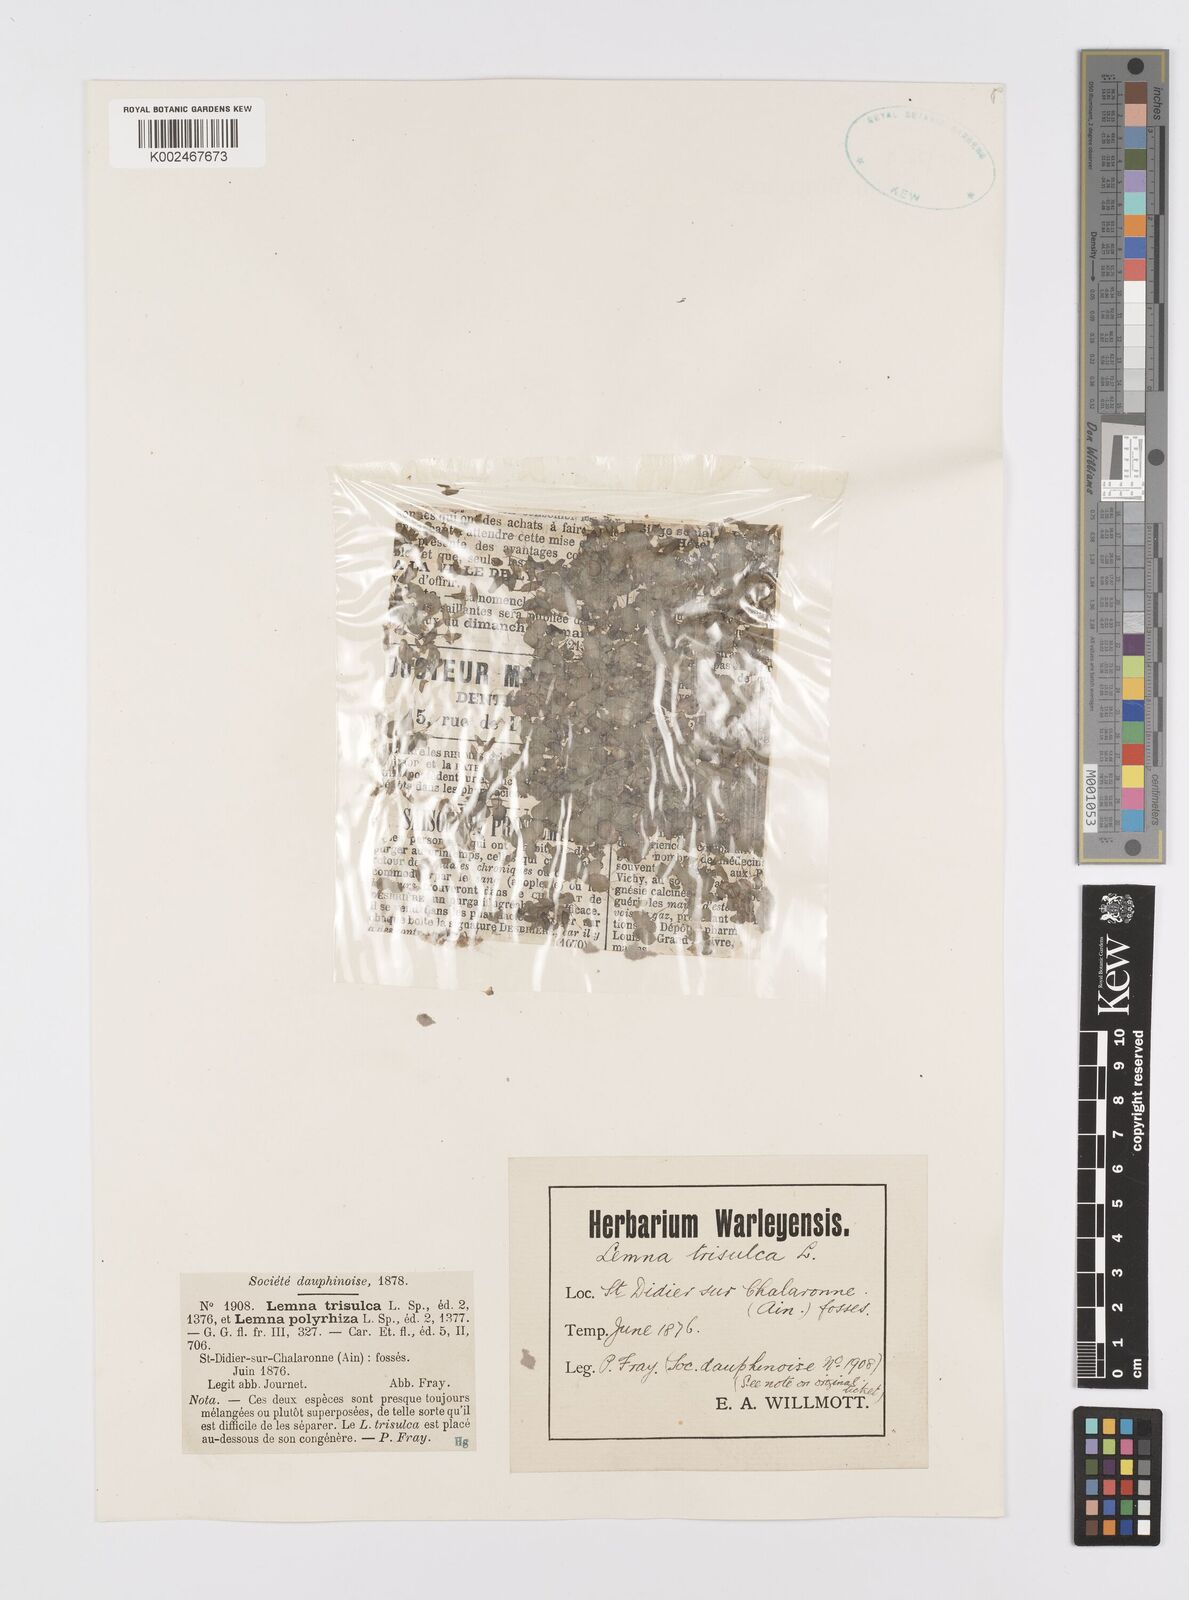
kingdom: Plantae
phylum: Tracheophyta
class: Liliopsida
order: Alismatales
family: Araceae
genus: Lemna
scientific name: Lemna trisulca
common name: Ivy-leaved duckweed
